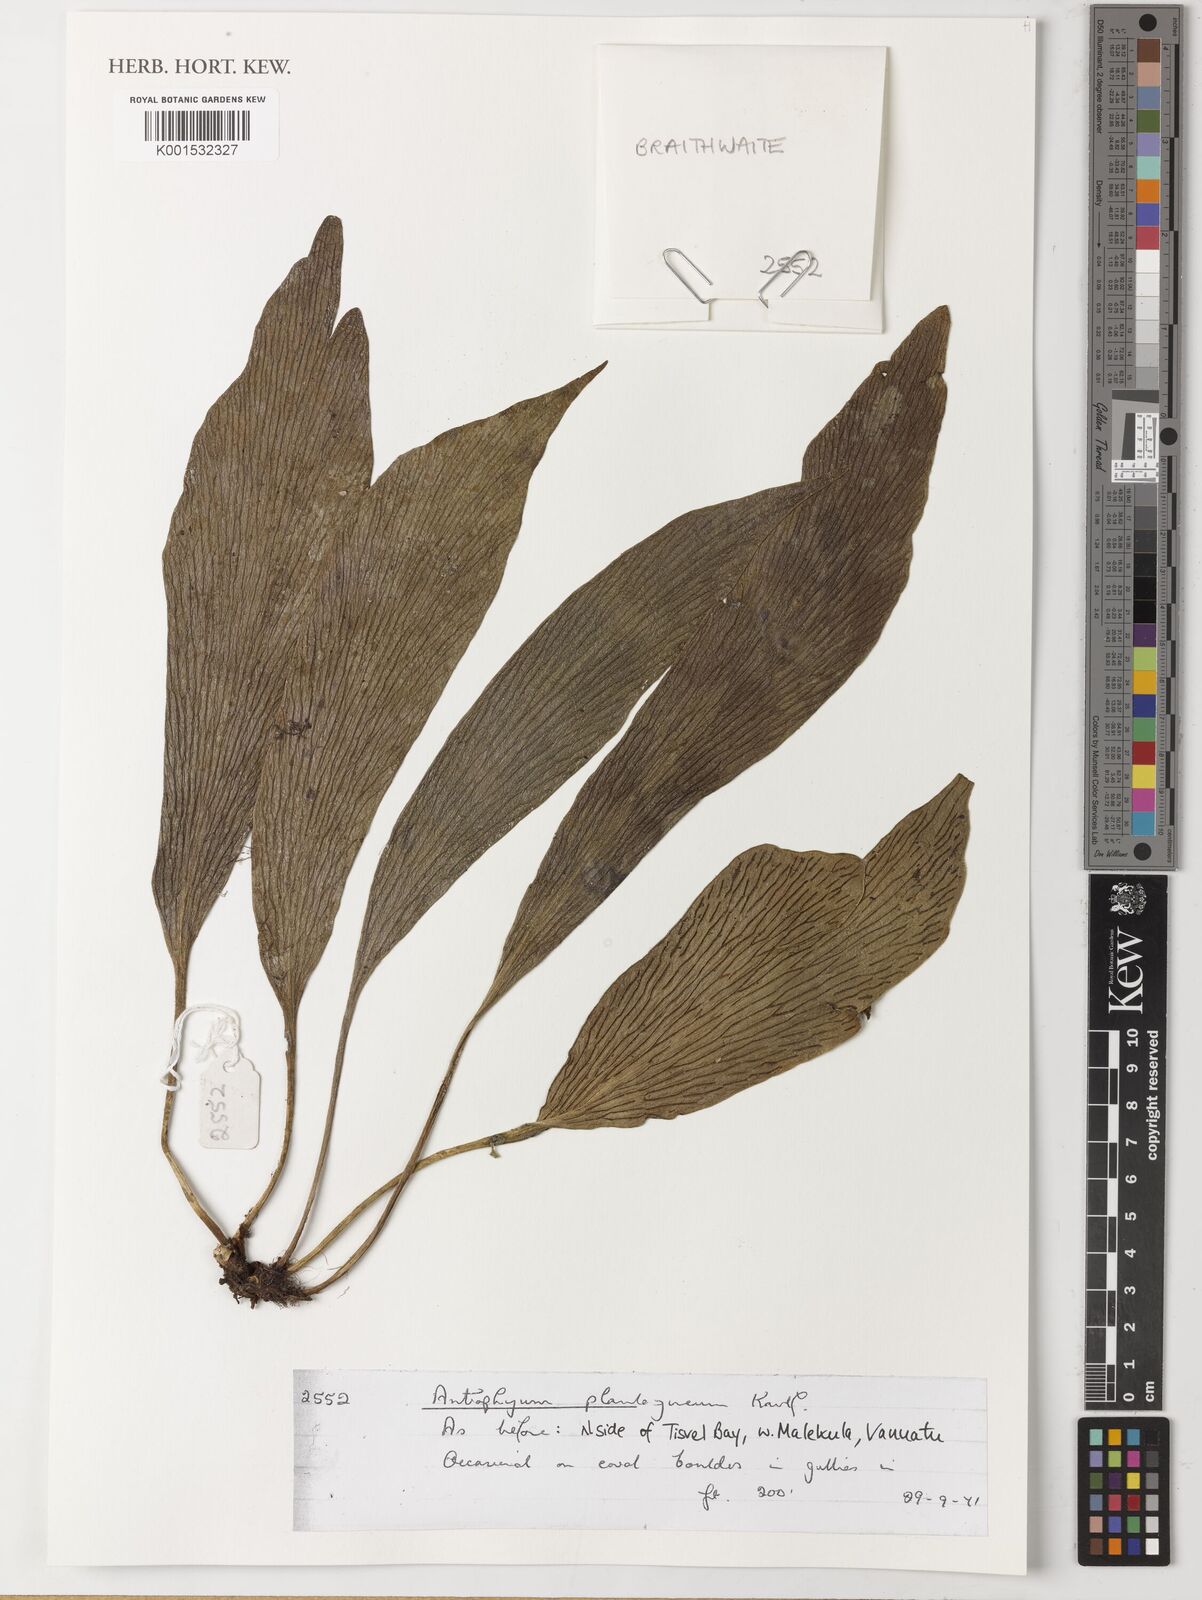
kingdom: Plantae
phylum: Tracheophyta
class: Polypodiopsida
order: Polypodiales
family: Pteridaceae
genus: Antrophyum
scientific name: Antrophyum plantagineum
